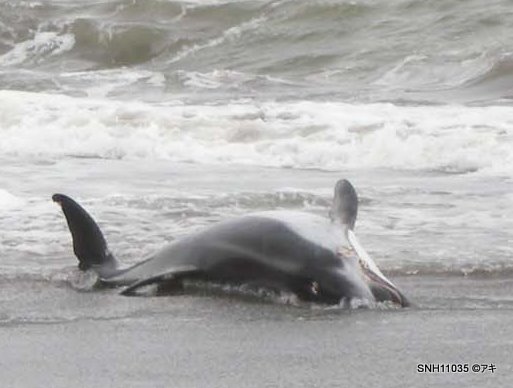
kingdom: Animalia
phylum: Chordata
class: Mammalia
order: Cetacea
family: Delphinidae
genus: Lagenorhynchus
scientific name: Lagenorhynchus obliquidens
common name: Pacific white-sided dolphin
